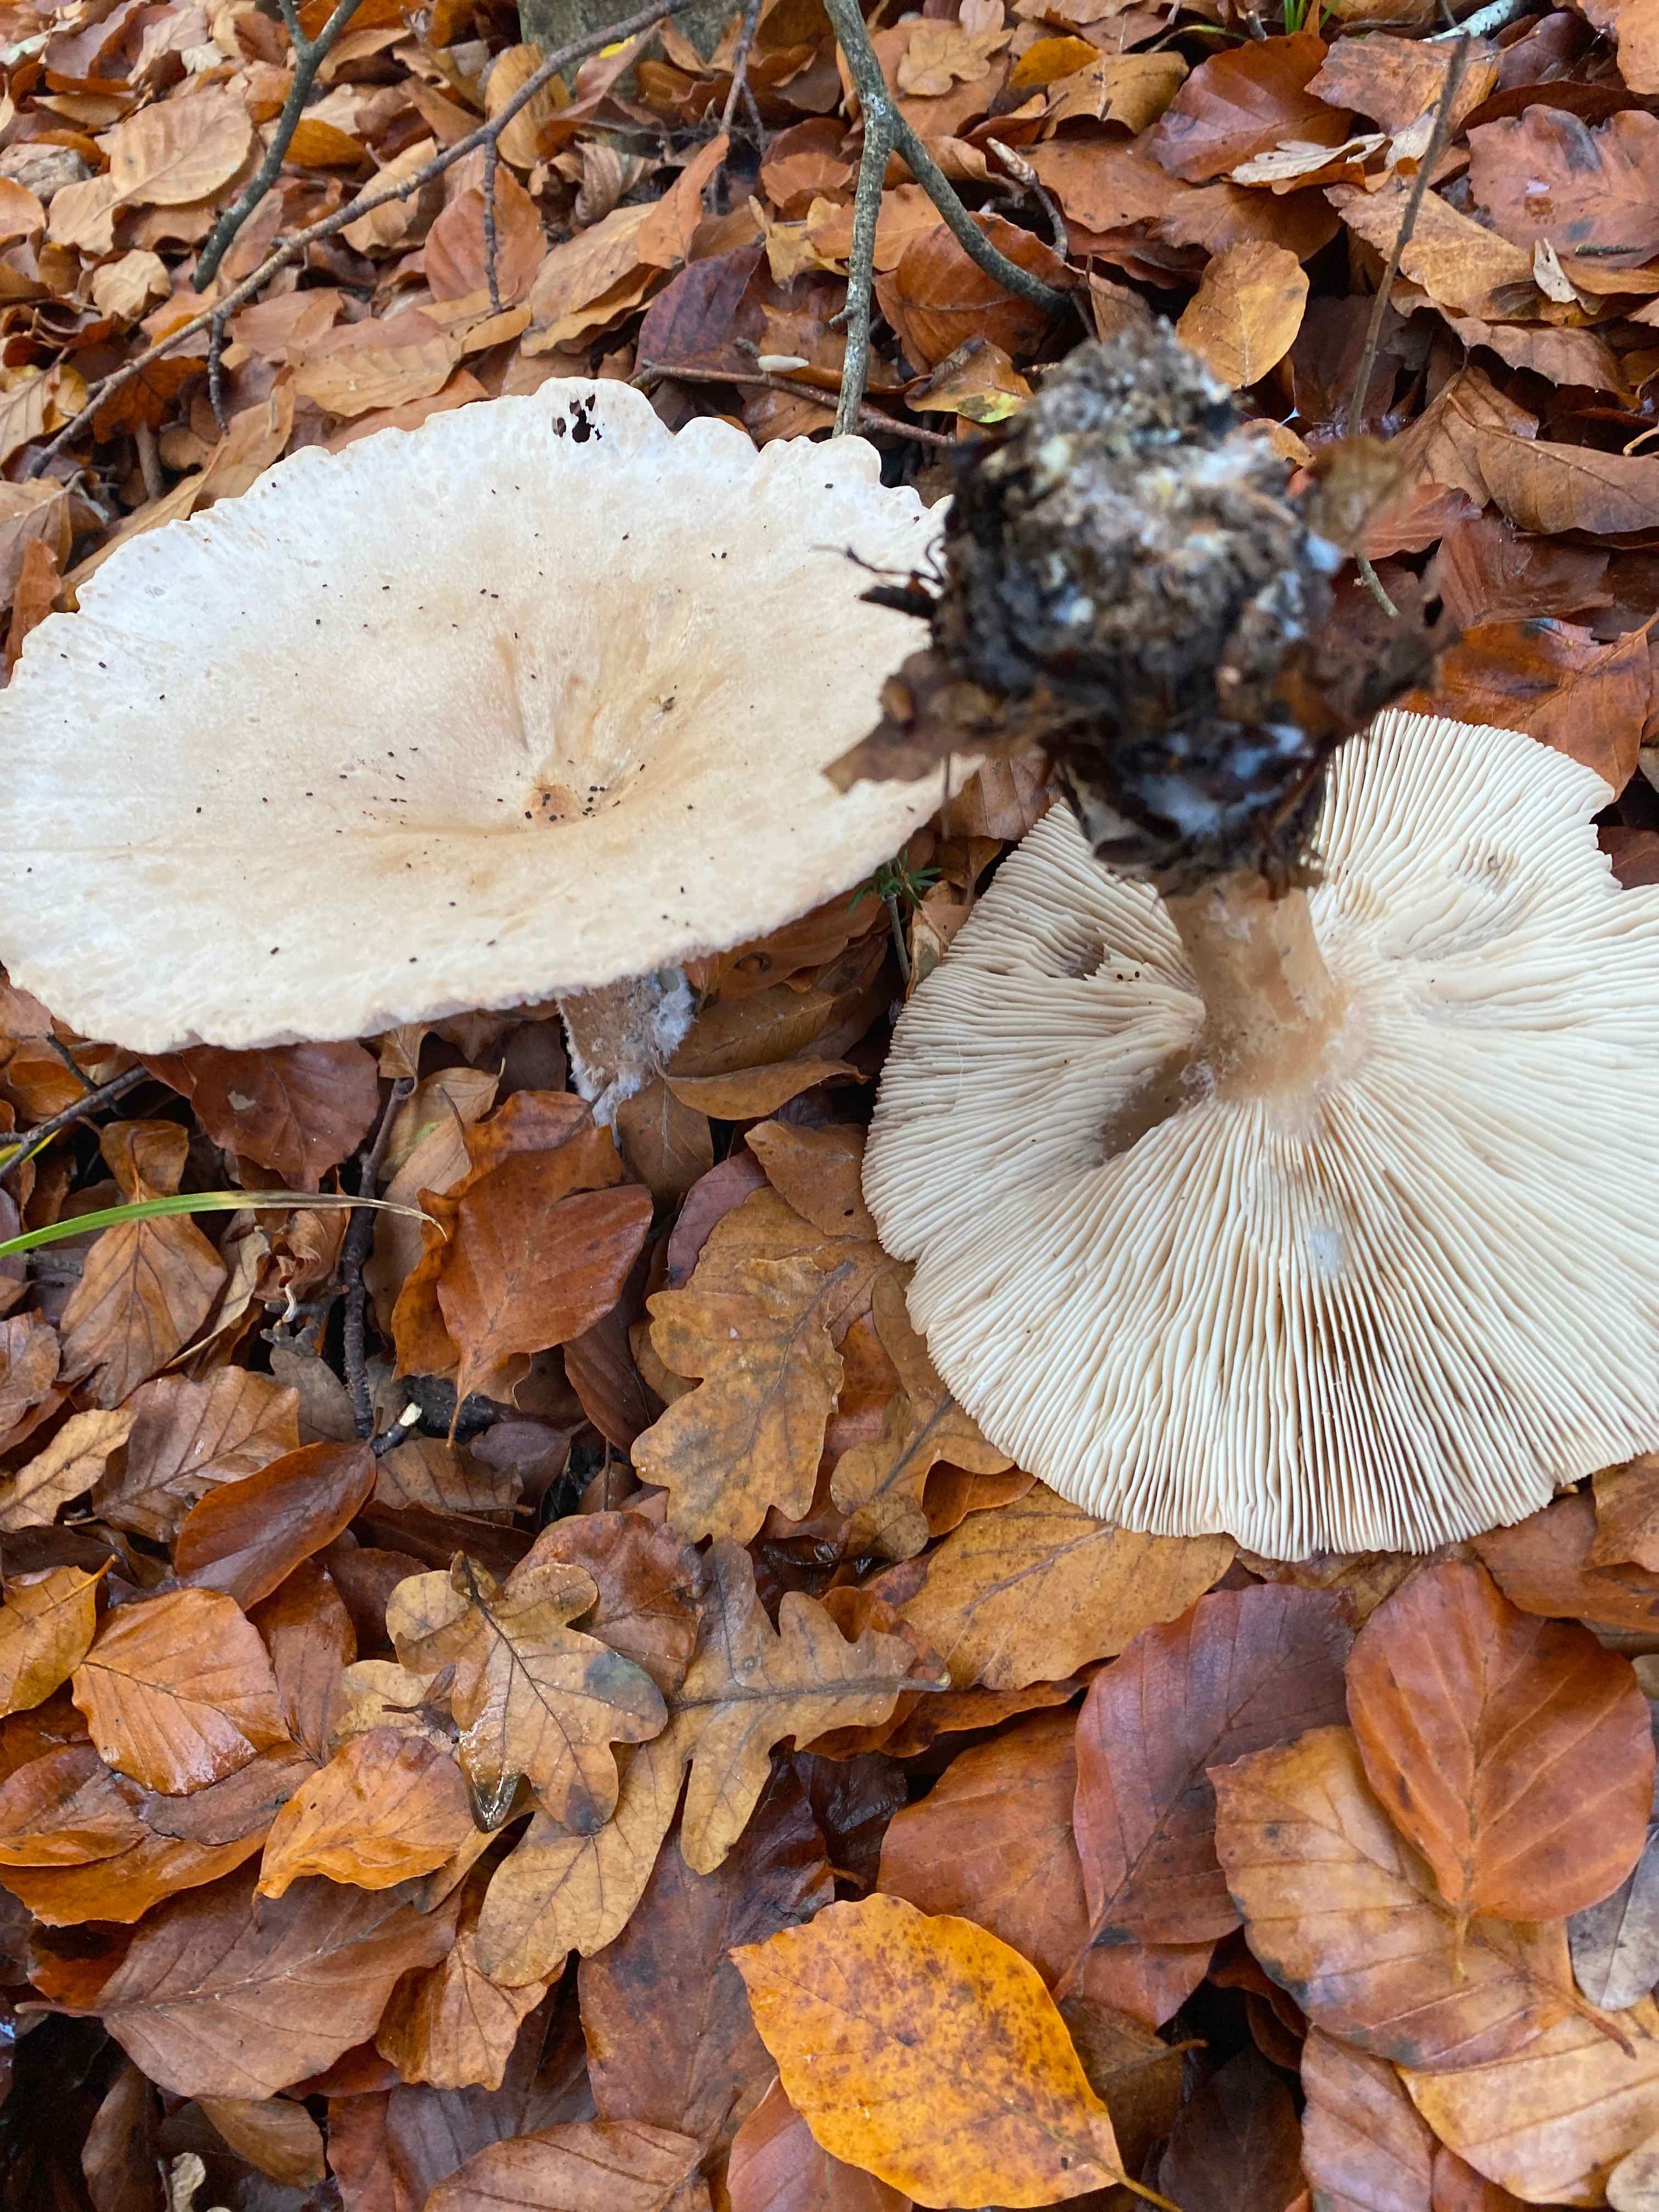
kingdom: Fungi
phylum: Basidiomycota
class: Agaricomycetes
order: Agaricales
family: Tricholomataceae
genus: Infundibulicybe
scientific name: Infundibulicybe geotropa
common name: stor tragthat
